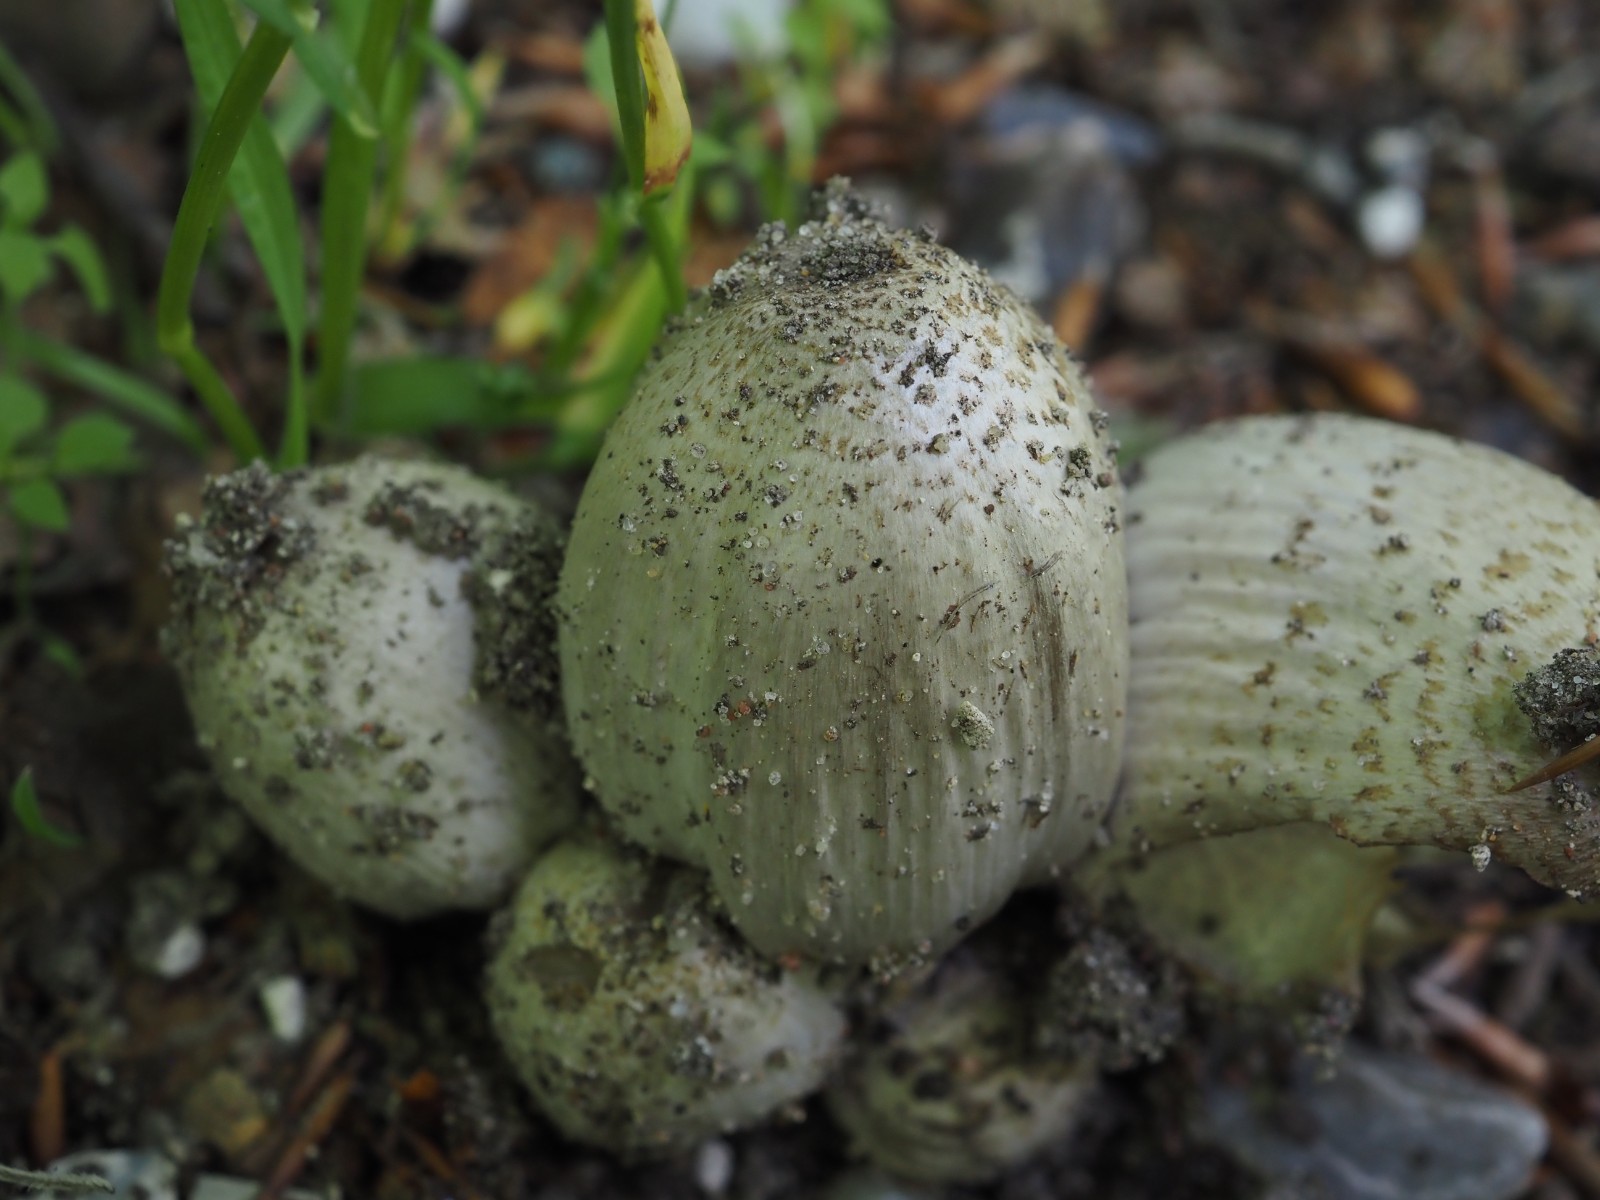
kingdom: Fungi
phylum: Basidiomycota
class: Agaricomycetes
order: Agaricales
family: Psathyrellaceae
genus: Coprinopsis
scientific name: Coprinopsis romagnesiana
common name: brunskællet blækhat
